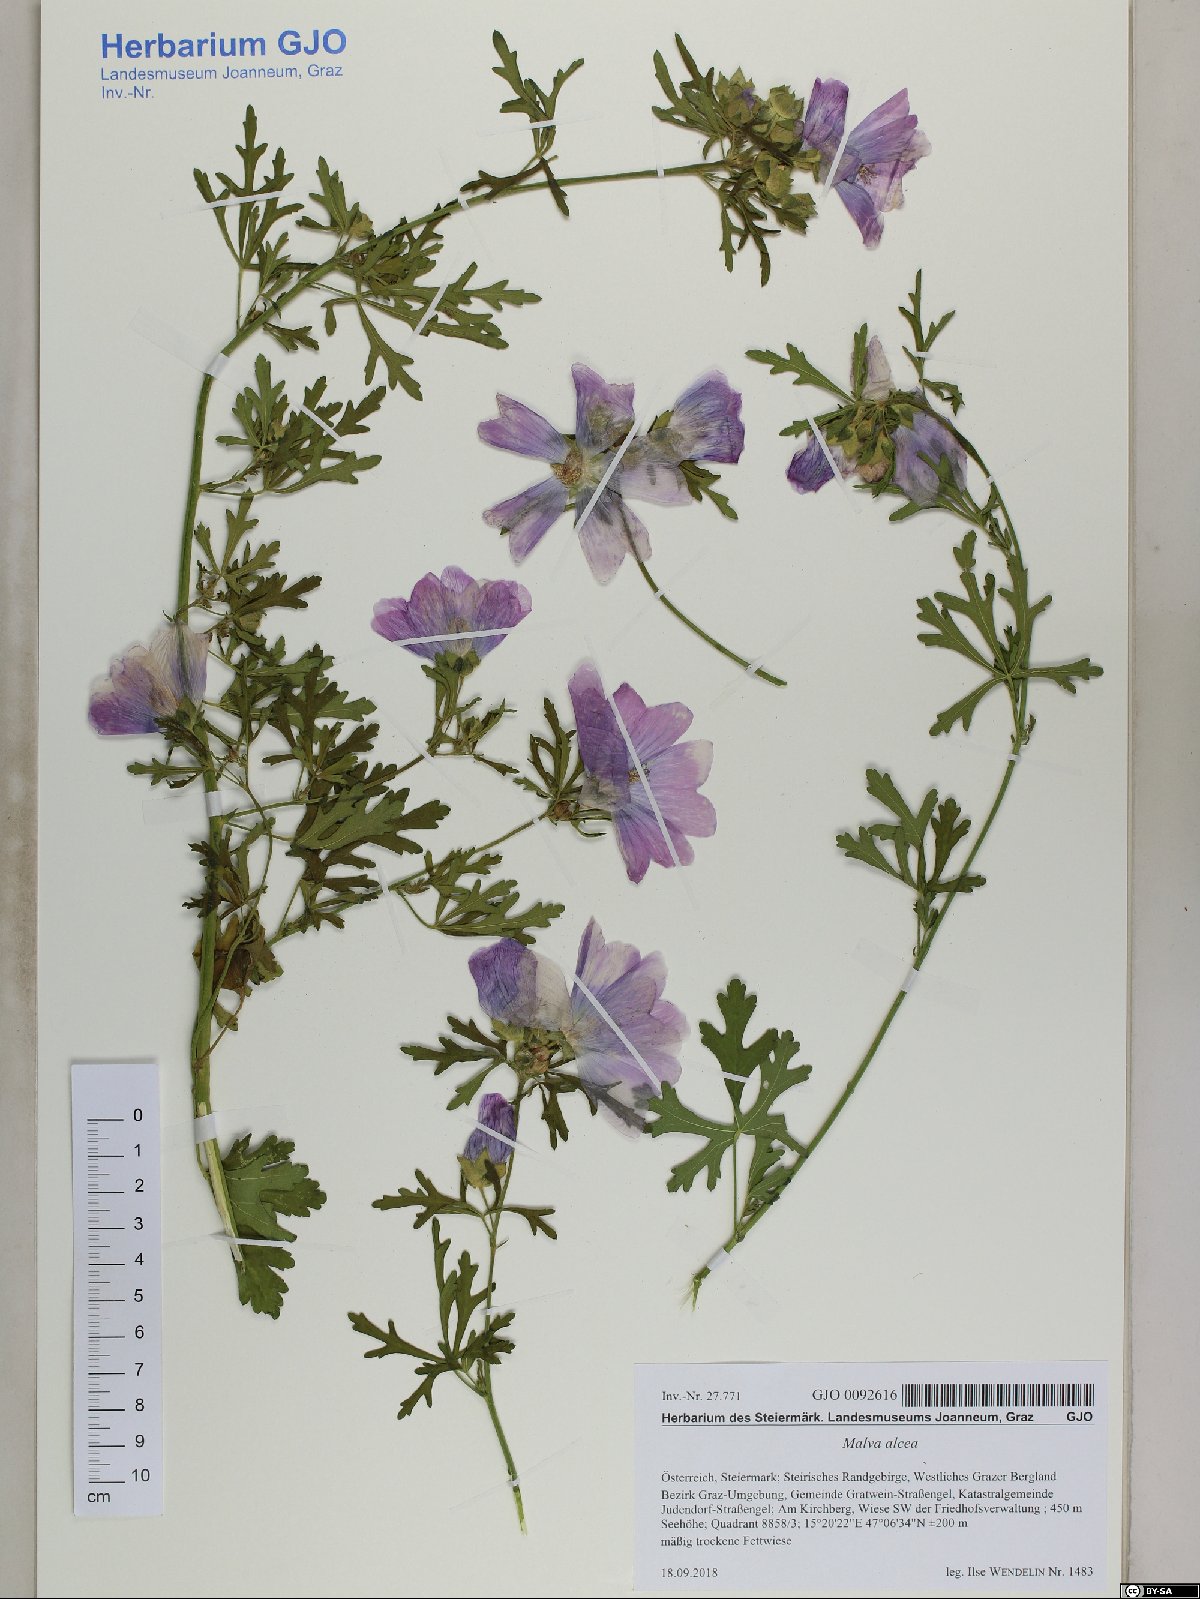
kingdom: Plantae
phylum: Tracheophyta
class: Magnoliopsida
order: Malvales
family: Malvaceae
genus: Malva
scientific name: Malva alcea
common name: Greater musk-mallow
